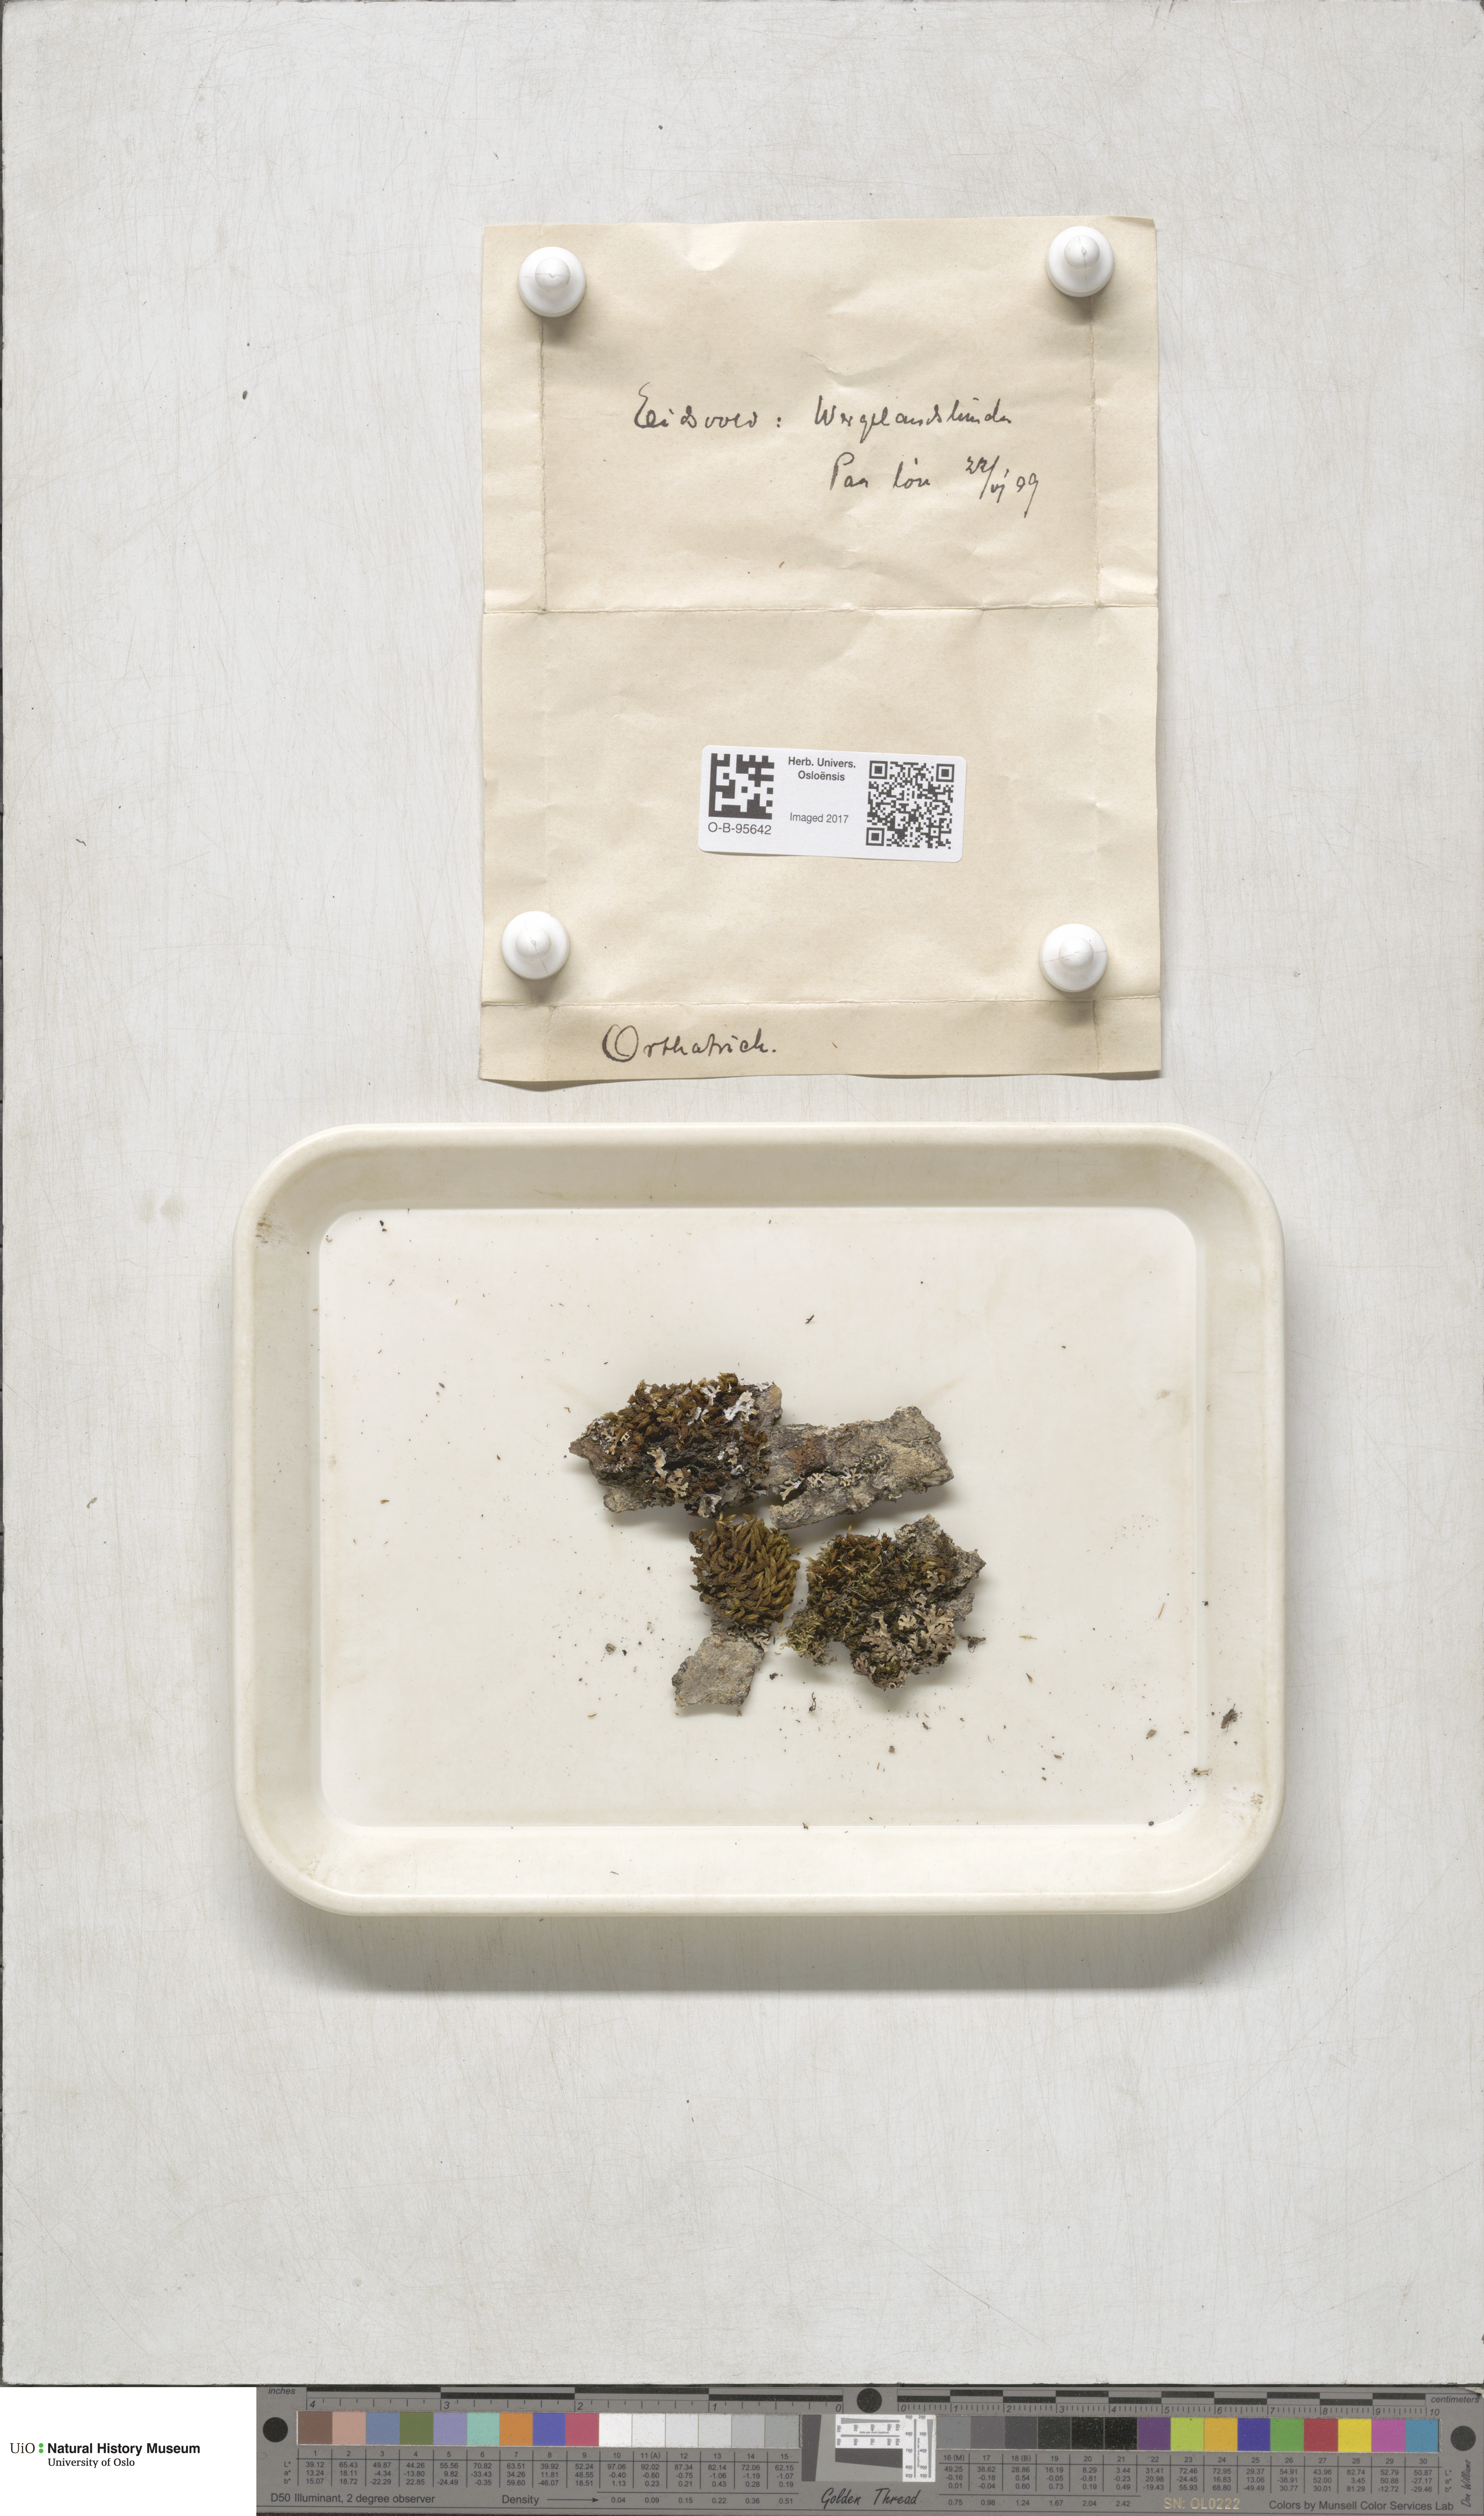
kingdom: Plantae
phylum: Bryophyta
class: Bryopsida
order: Orthotrichales
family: Orthotrichaceae
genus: Orthotrichum
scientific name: Orthotrichum
